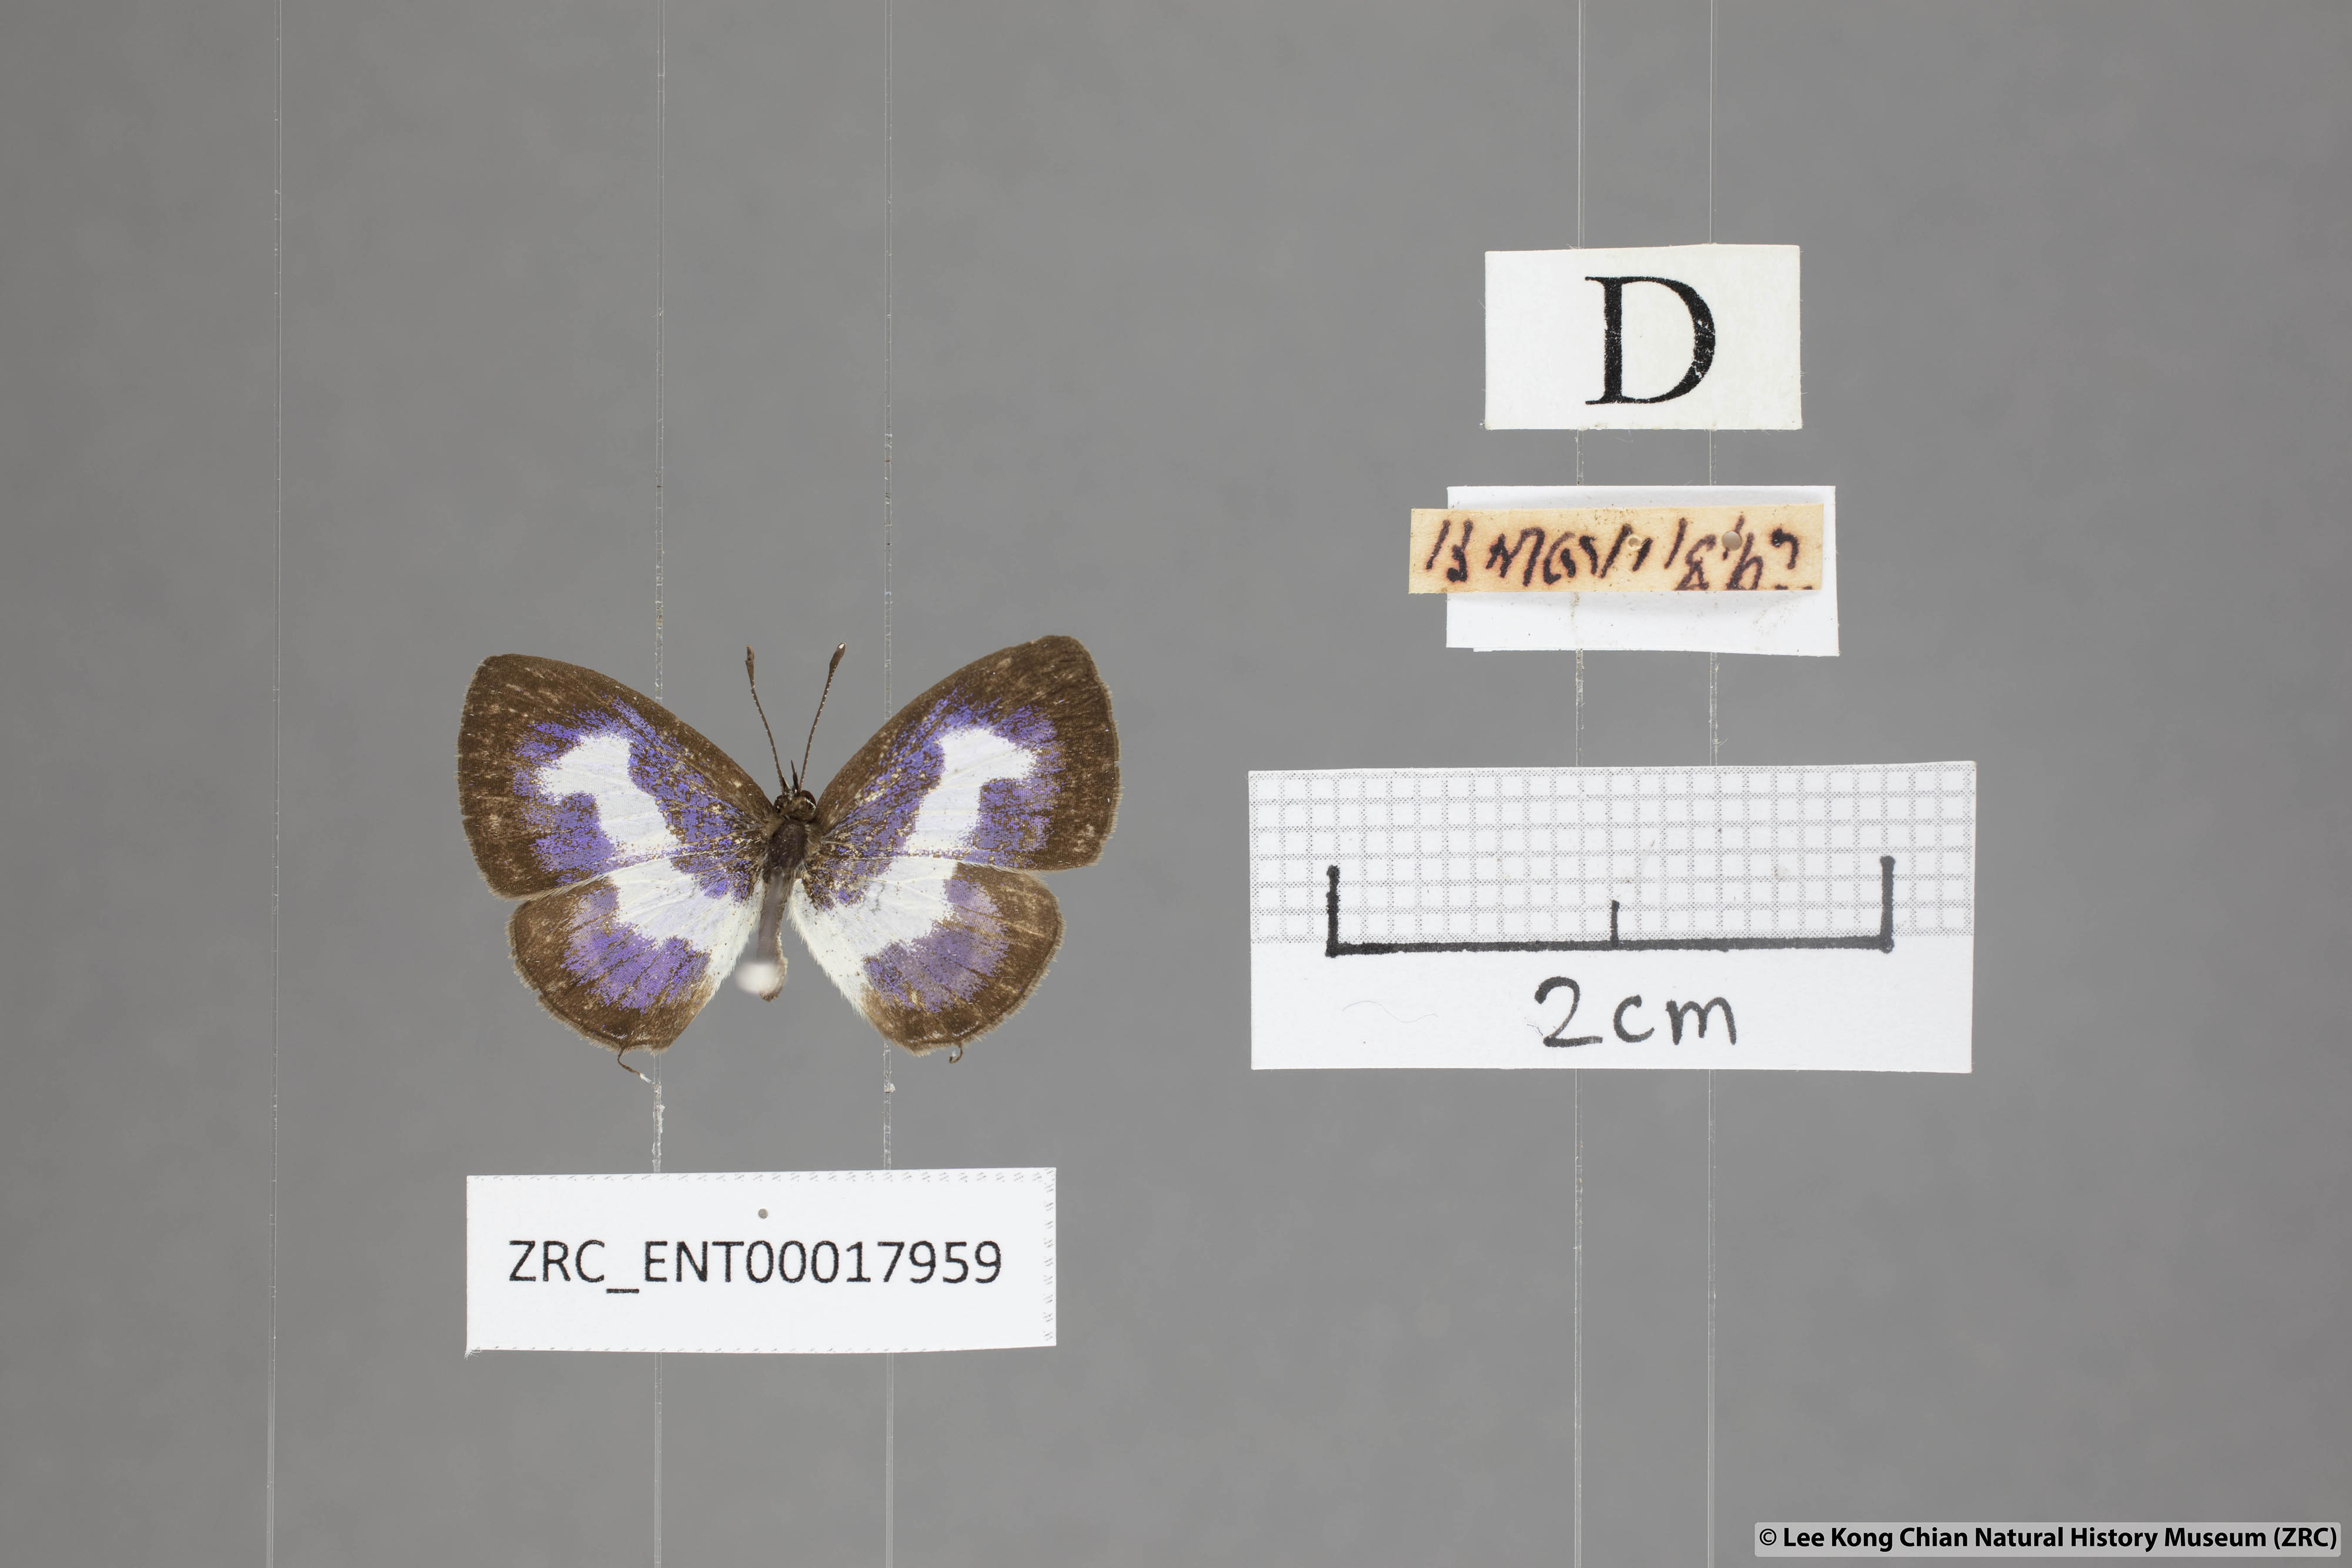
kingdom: Animalia
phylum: Arthropoda
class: Insecta
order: Lepidoptera
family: Lycaenidae
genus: Discolampa
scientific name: Discolampa ethion
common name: Banded blue pierrot
